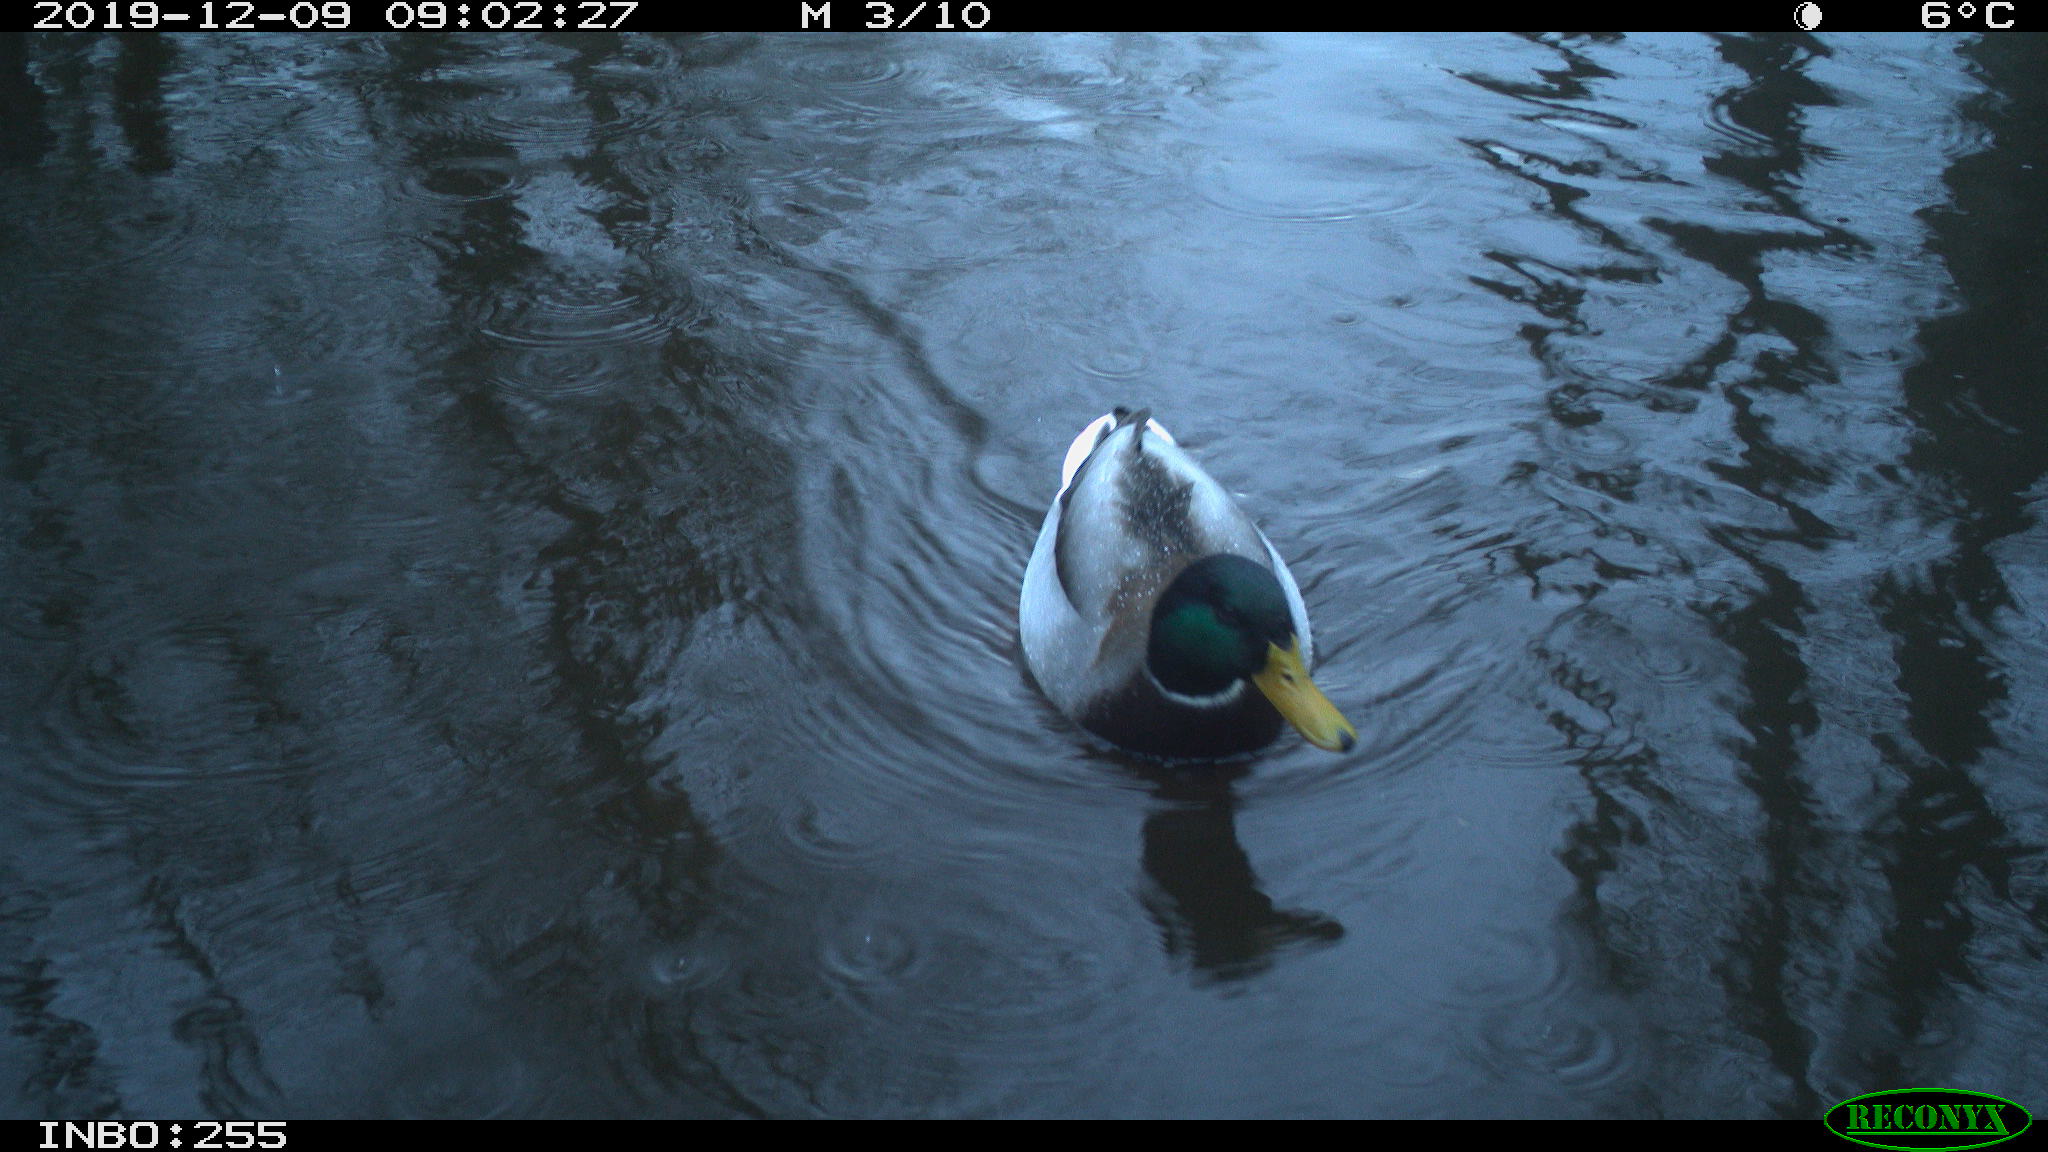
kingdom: Animalia
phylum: Chordata
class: Aves
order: Anseriformes
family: Anatidae
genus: Anas
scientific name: Anas platyrhynchos
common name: Mallard
